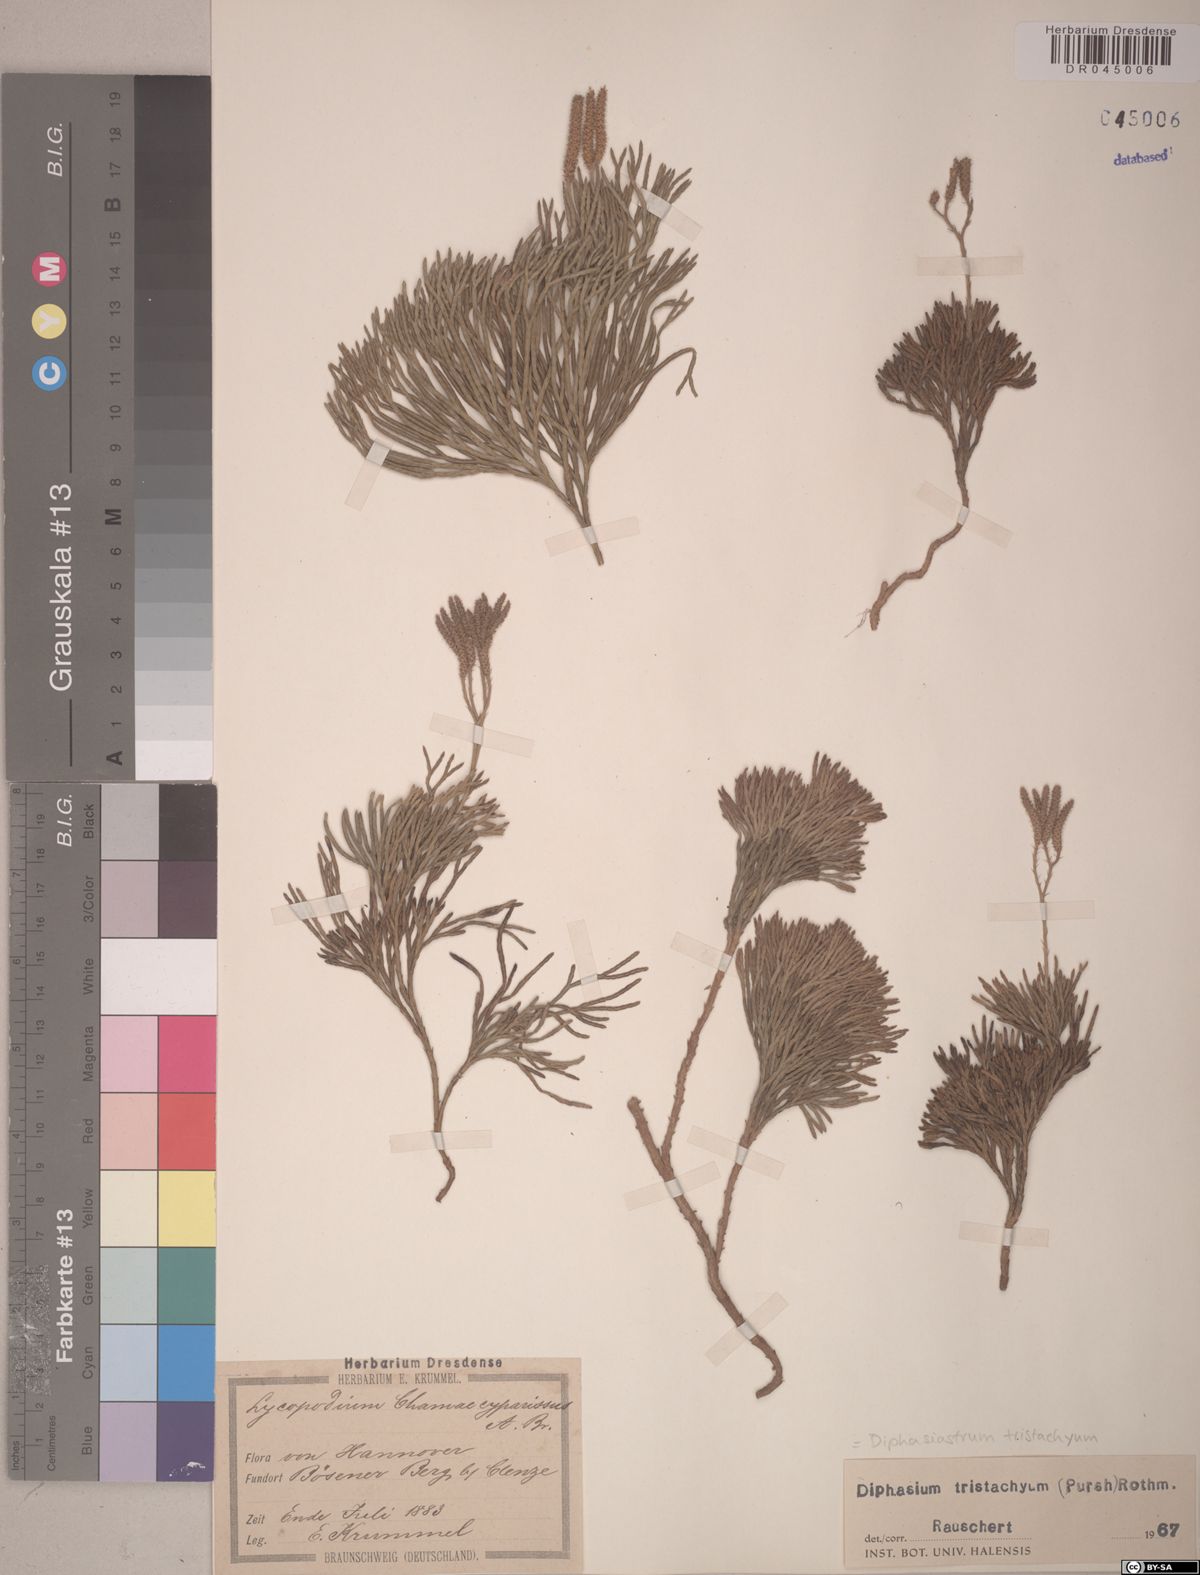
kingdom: Plantae
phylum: Tracheophyta
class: Lycopodiopsida
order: Lycopodiales
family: Lycopodiaceae
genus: Diphasiastrum
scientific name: Diphasiastrum tristachyum
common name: Blue ground-cedar
